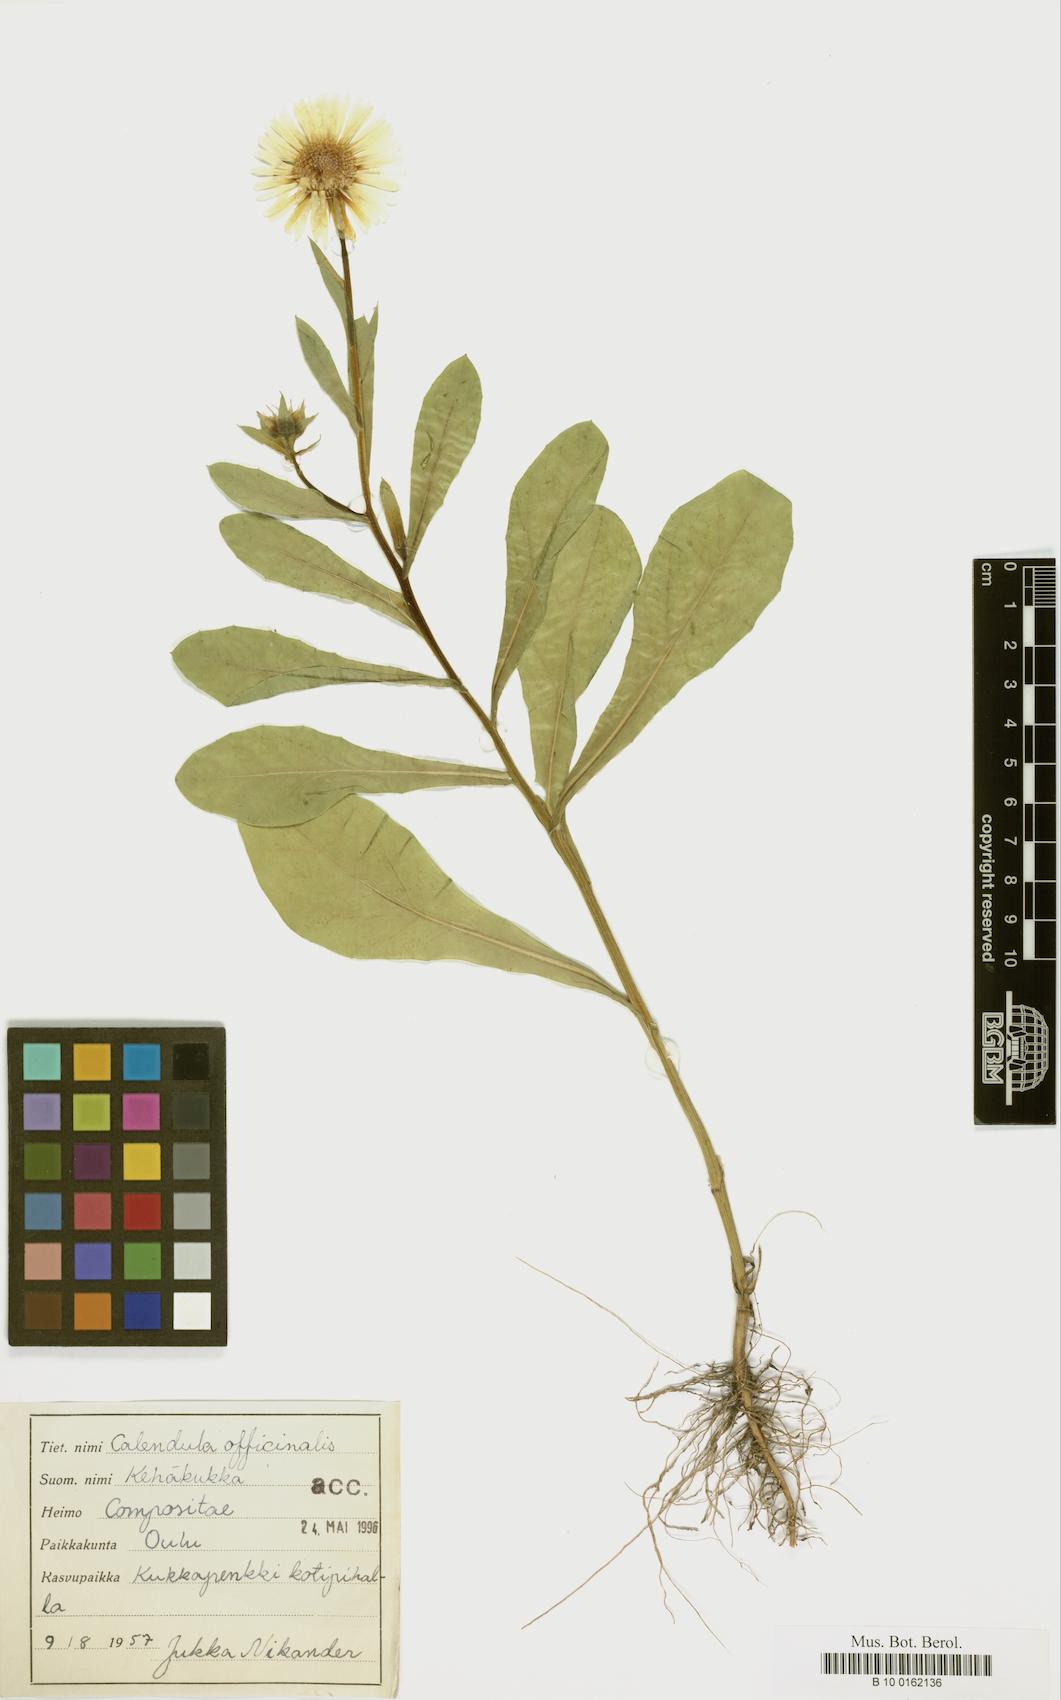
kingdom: Plantae
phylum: Tracheophyta
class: Magnoliopsida
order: Asterales
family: Asteraceae
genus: Calendula
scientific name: Calendula officinalis
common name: Pot marigold
